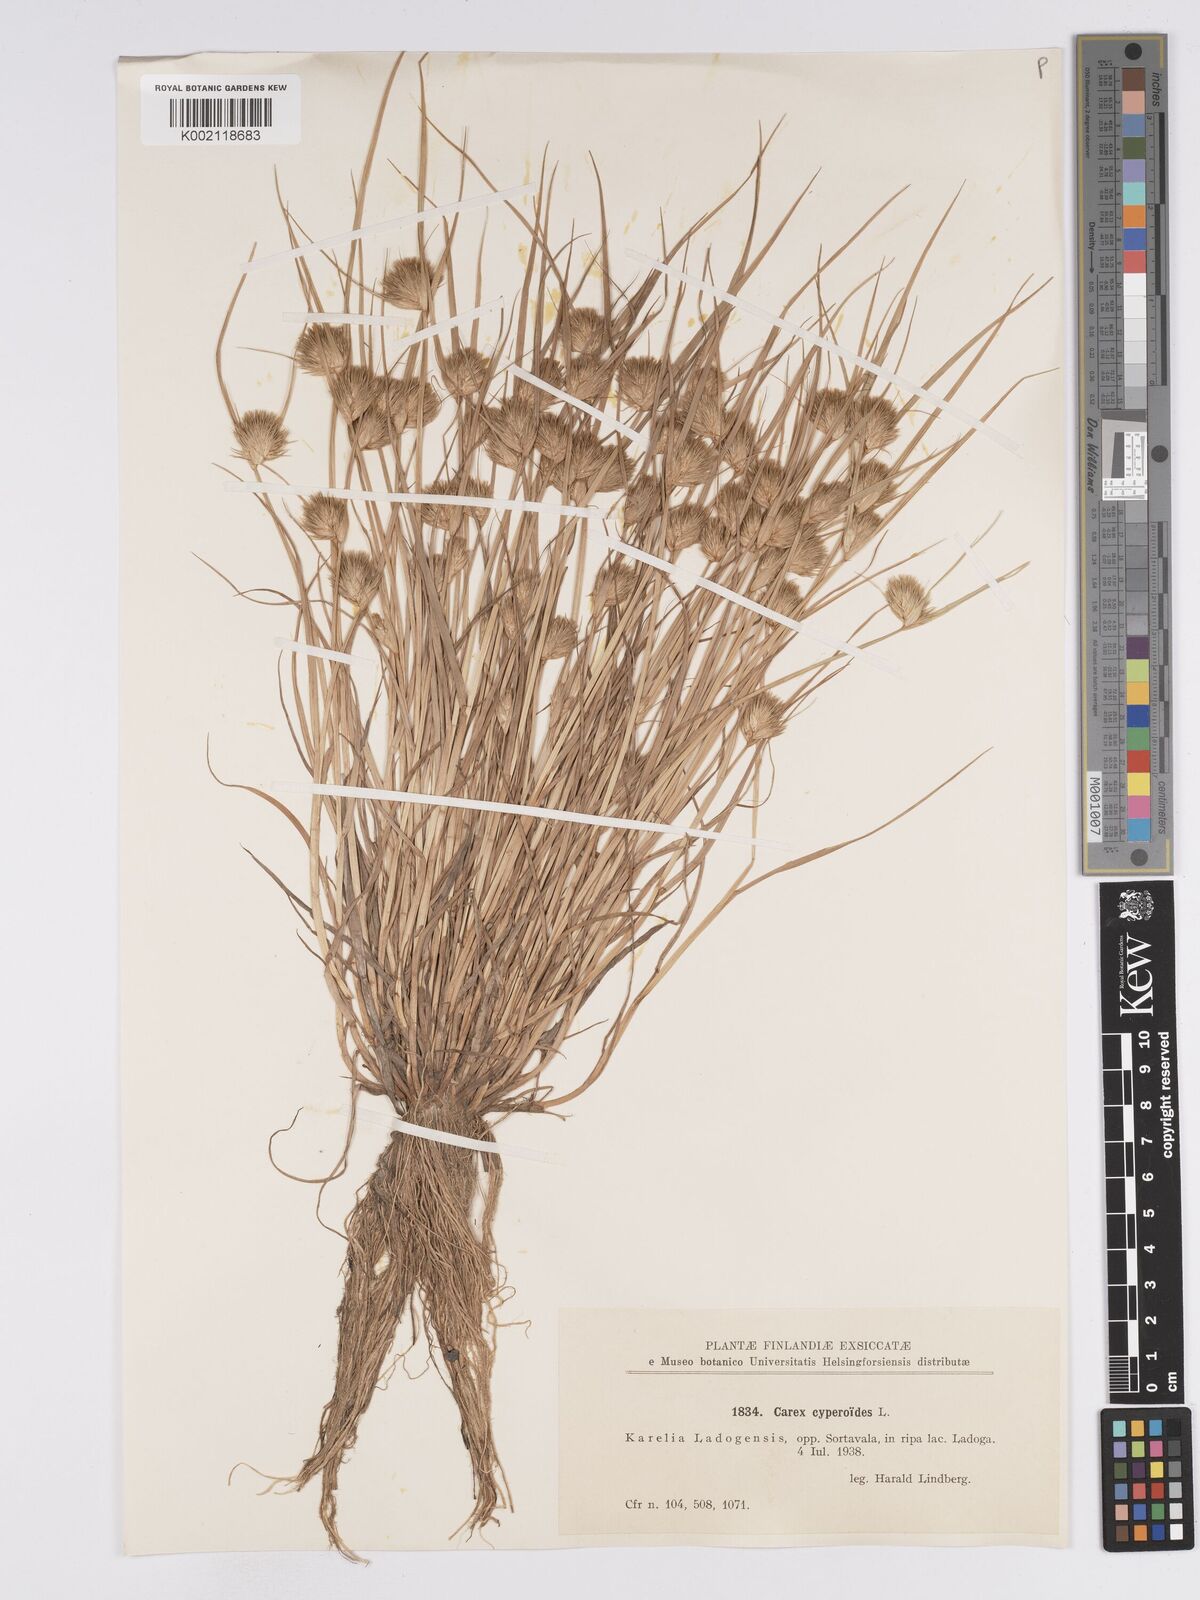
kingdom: Plantae
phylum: Tracheophyta
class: Liliopsida
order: Poales
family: Cyperaceae
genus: Carex
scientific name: Carex bohemica
